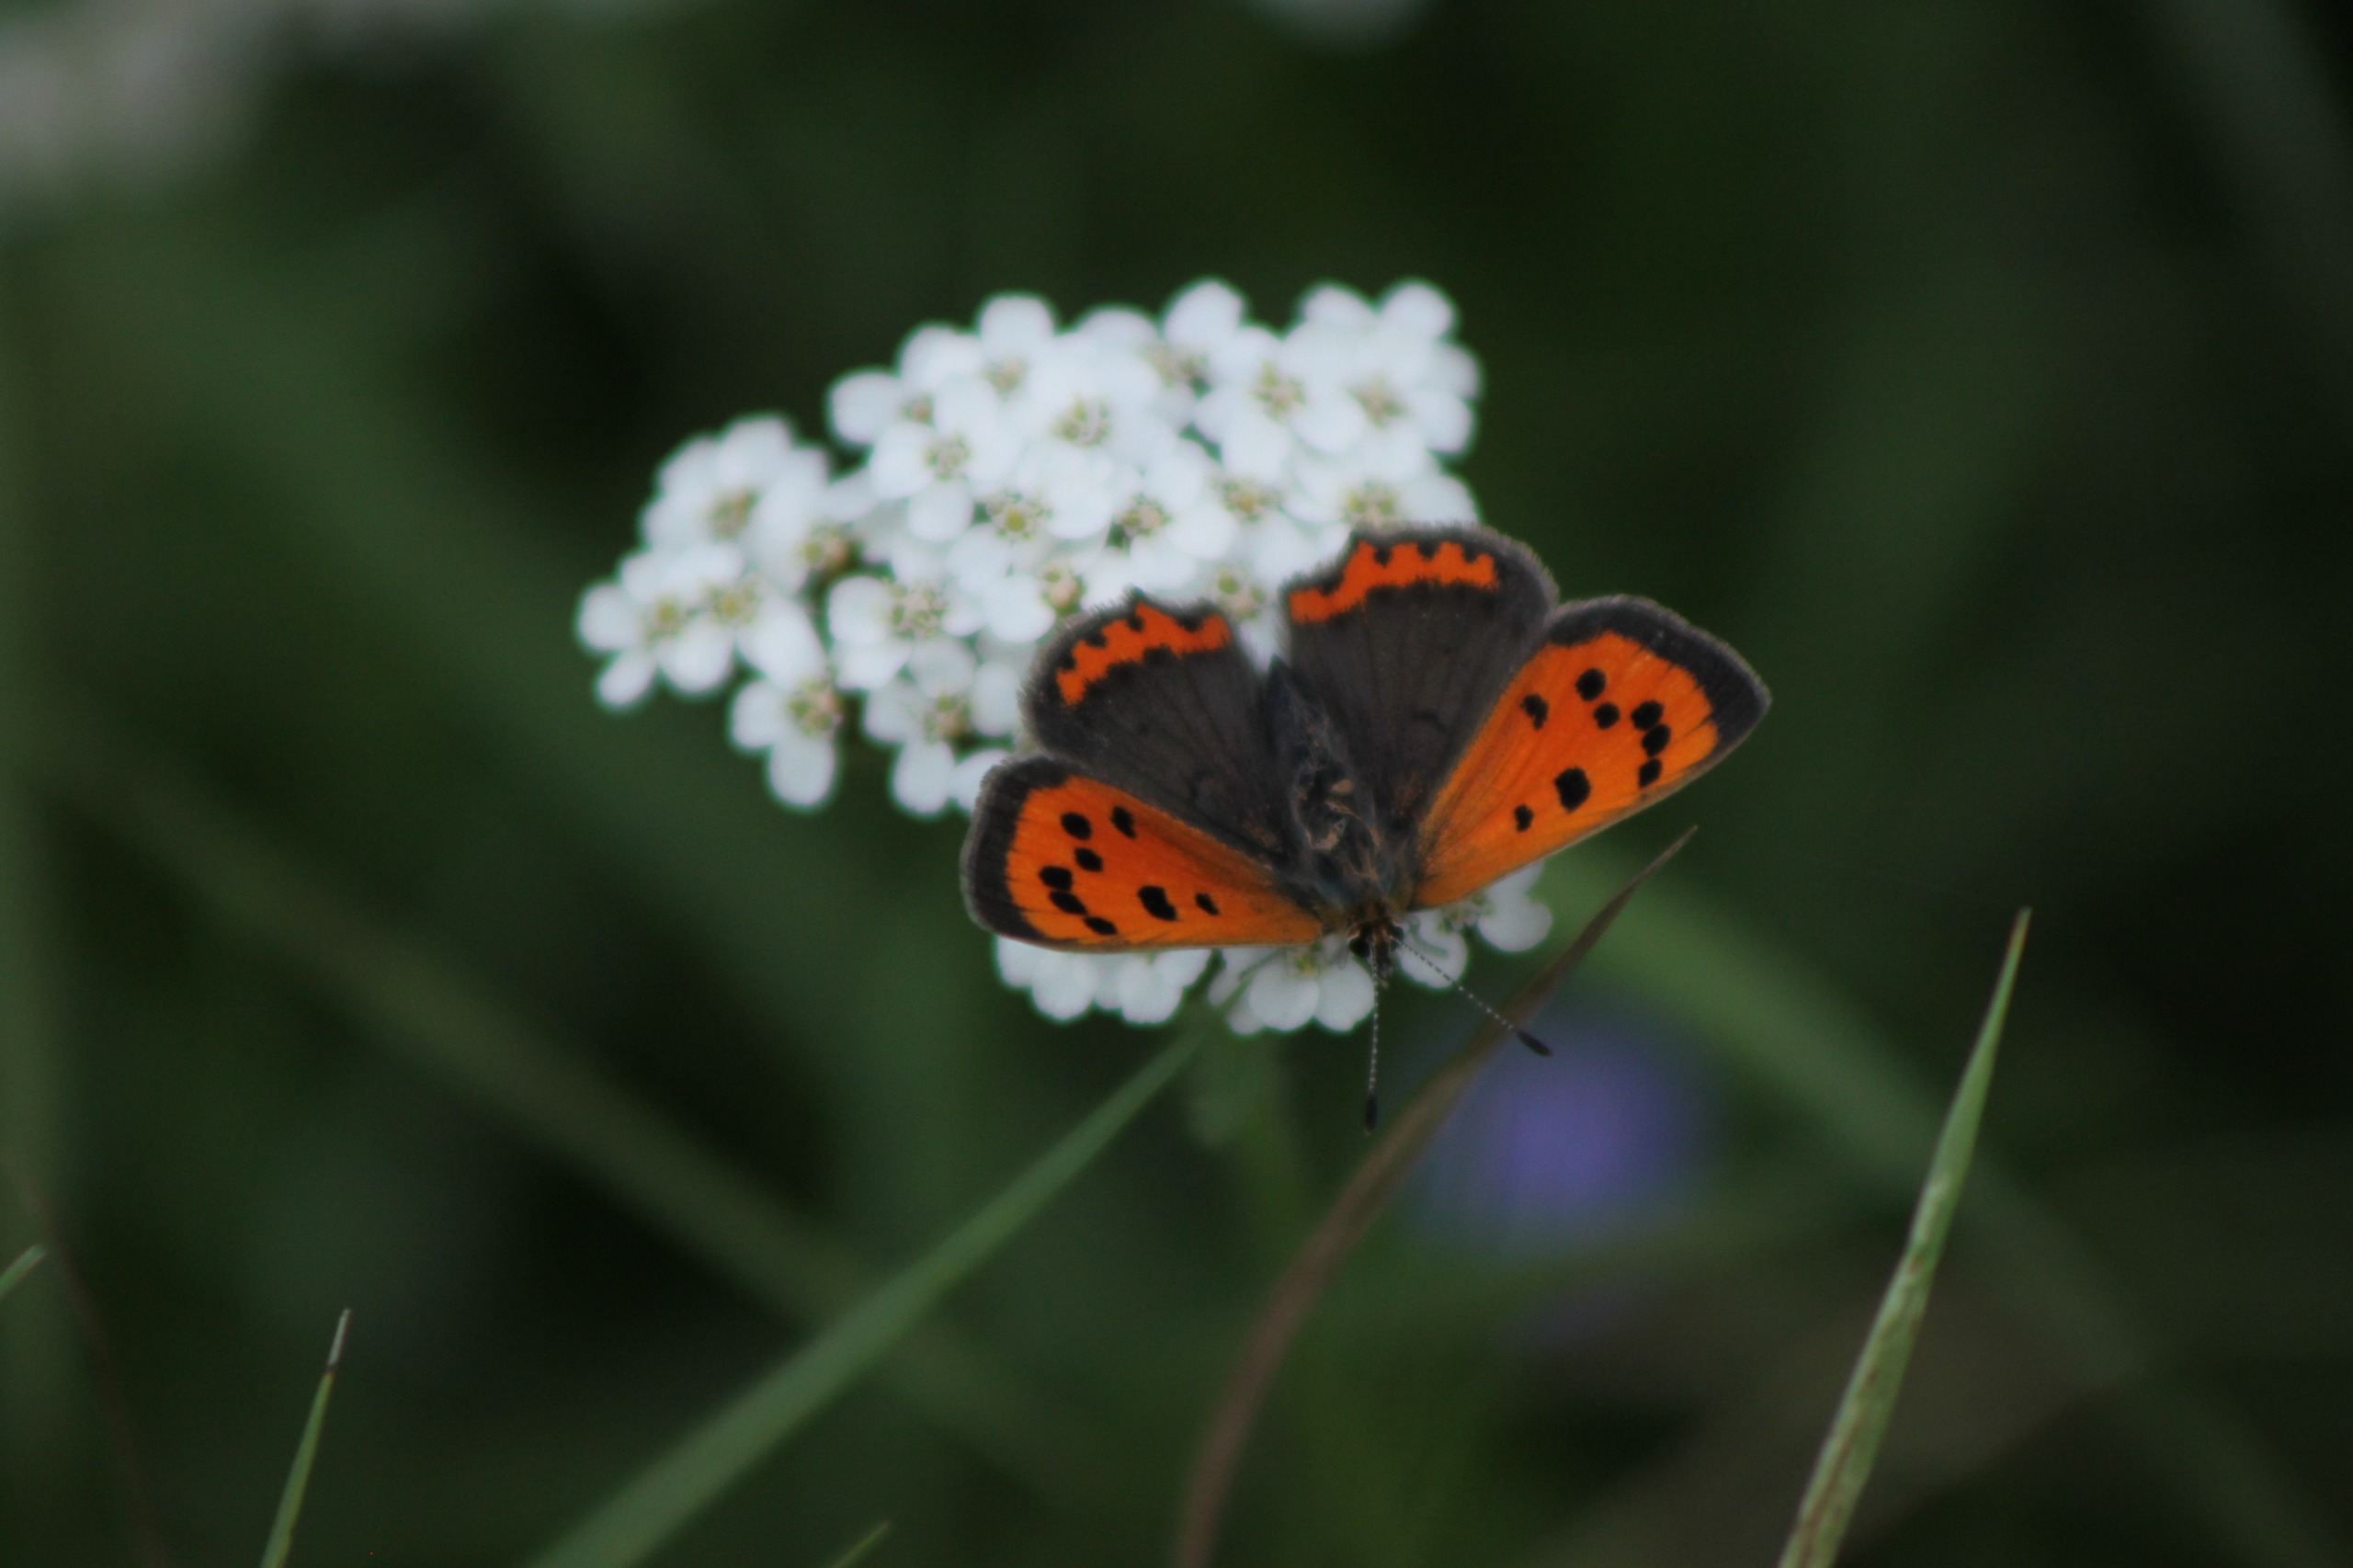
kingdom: Animalia
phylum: Arthropoda
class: Insecta
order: Lepidoptera
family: Lycaenidae
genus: Lycaena
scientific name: Lycaena phlaeas
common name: Lille ildfugl
